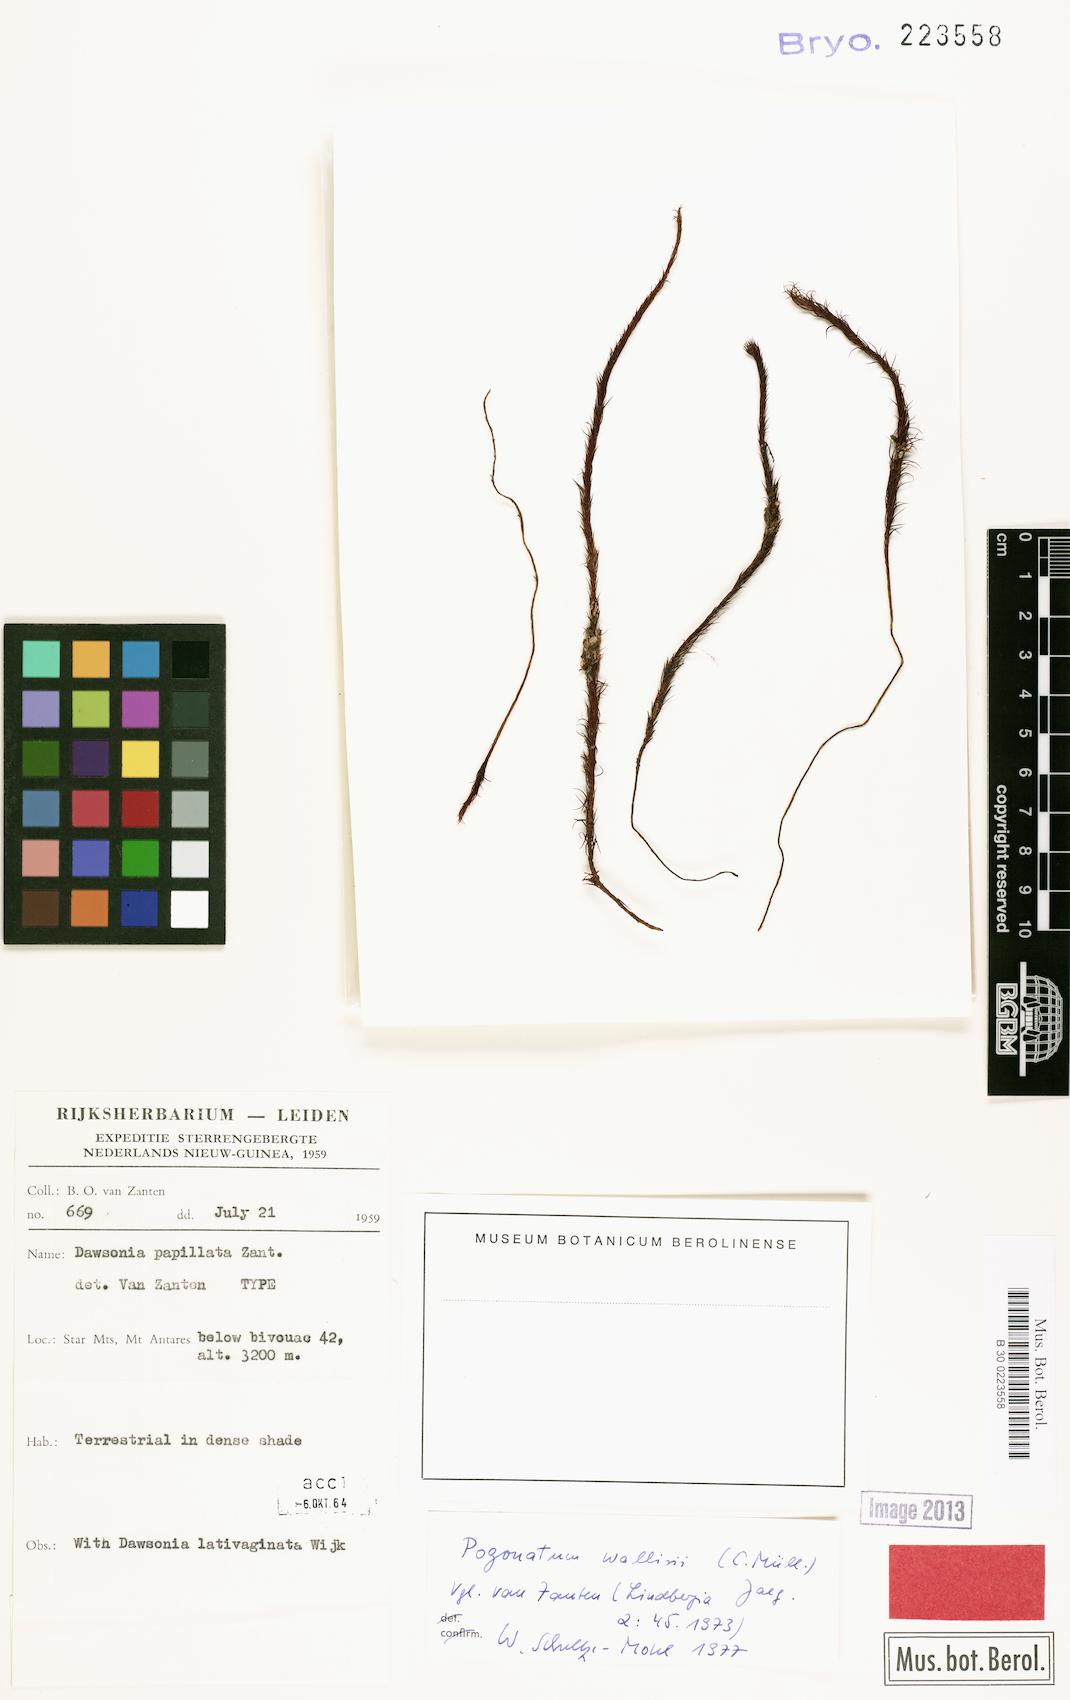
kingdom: Plantae
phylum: Bryophyta
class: Polytrichopsida
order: Polytrichales
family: Polytrichaceae
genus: Pogonatum
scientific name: Pogonatum urnigerum
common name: Urn hair moss
